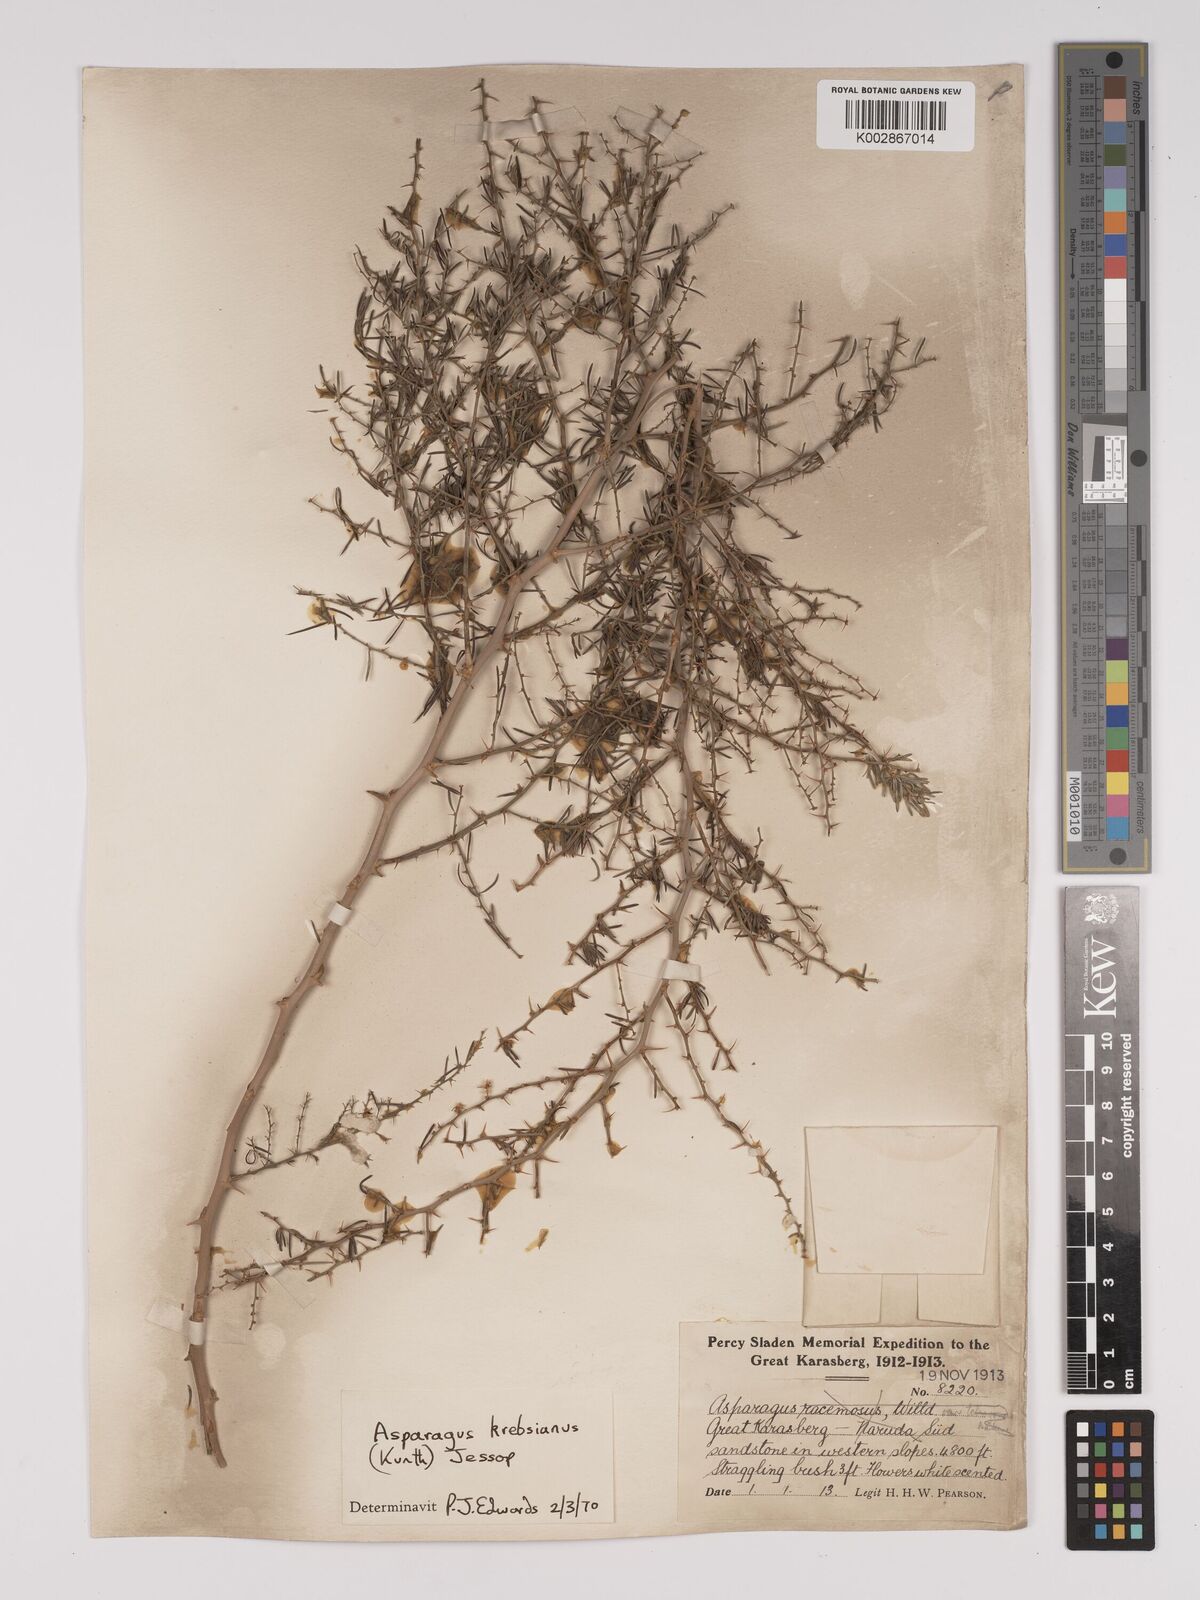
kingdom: Plantae
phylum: Tracheophyta
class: Liliopsida
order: Asparagales
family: Asparagaceae
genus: Asparagus
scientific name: Asparagus krebsianus
